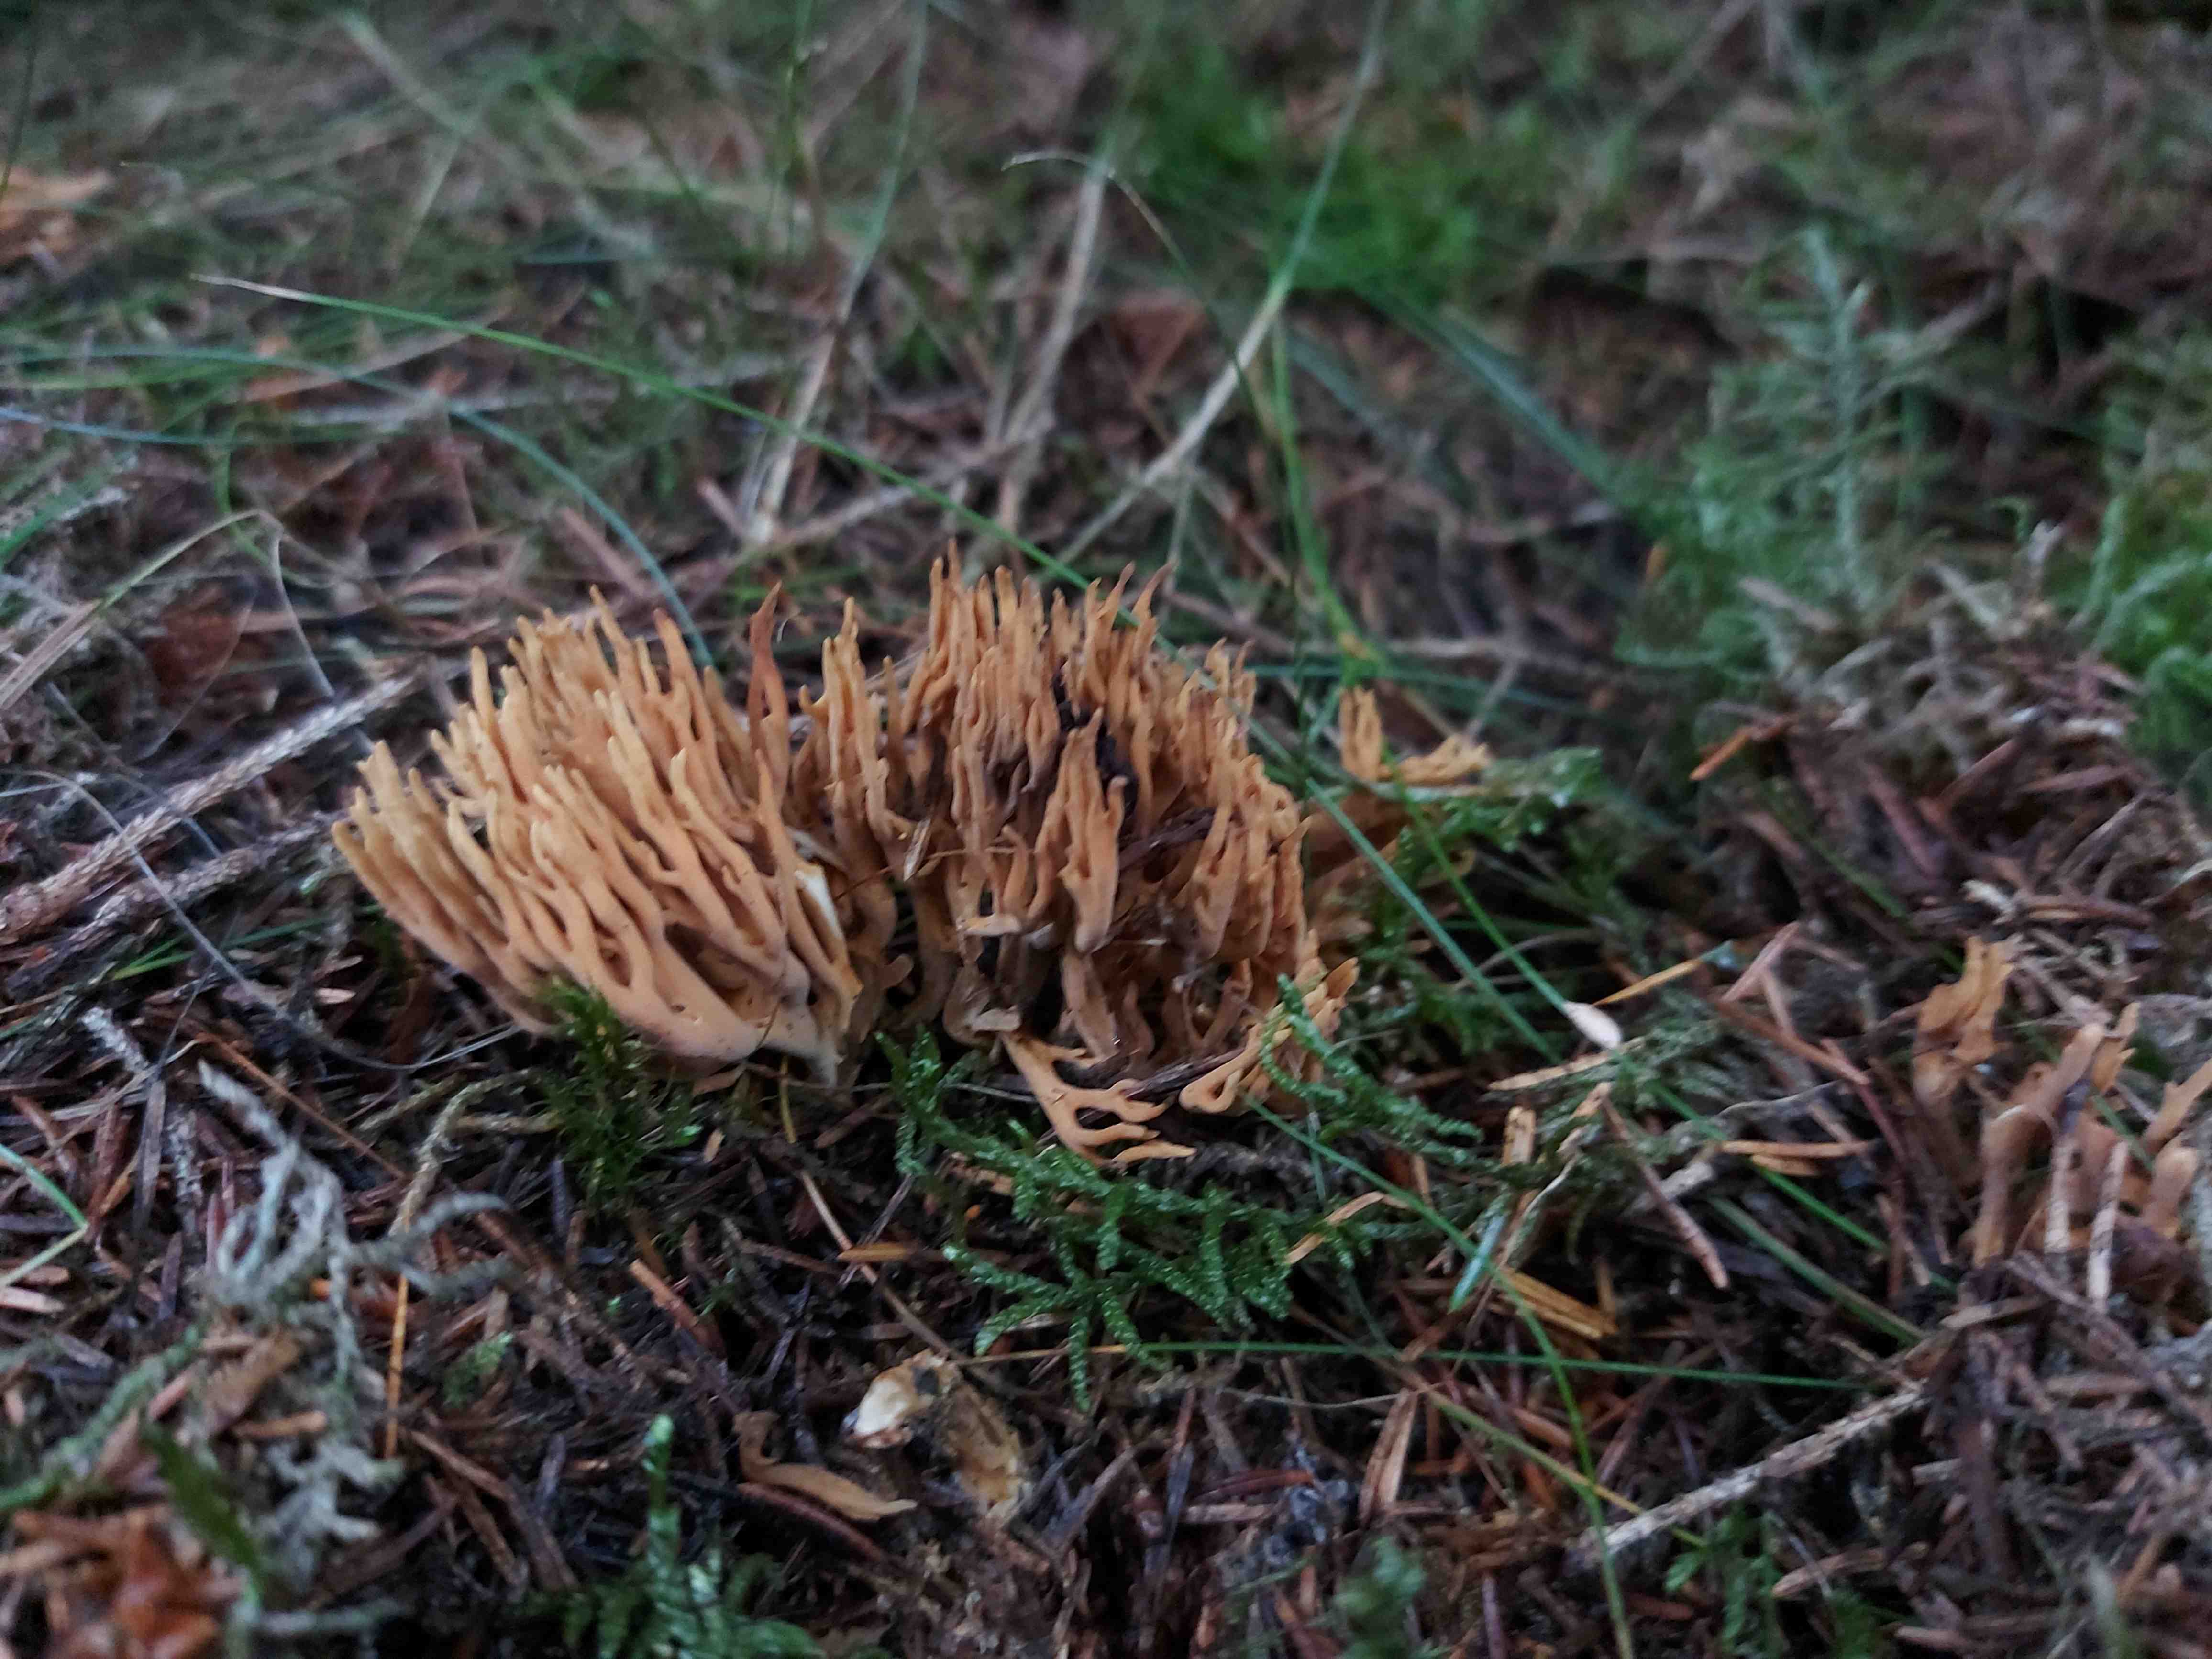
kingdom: Fungi
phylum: Basidiomycota
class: Agaricomycetes
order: Gomphales
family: Gomphaceae
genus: Phaeoclavulina
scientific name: Phaeoclavulina eumorpha
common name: gran-koralsvamp
